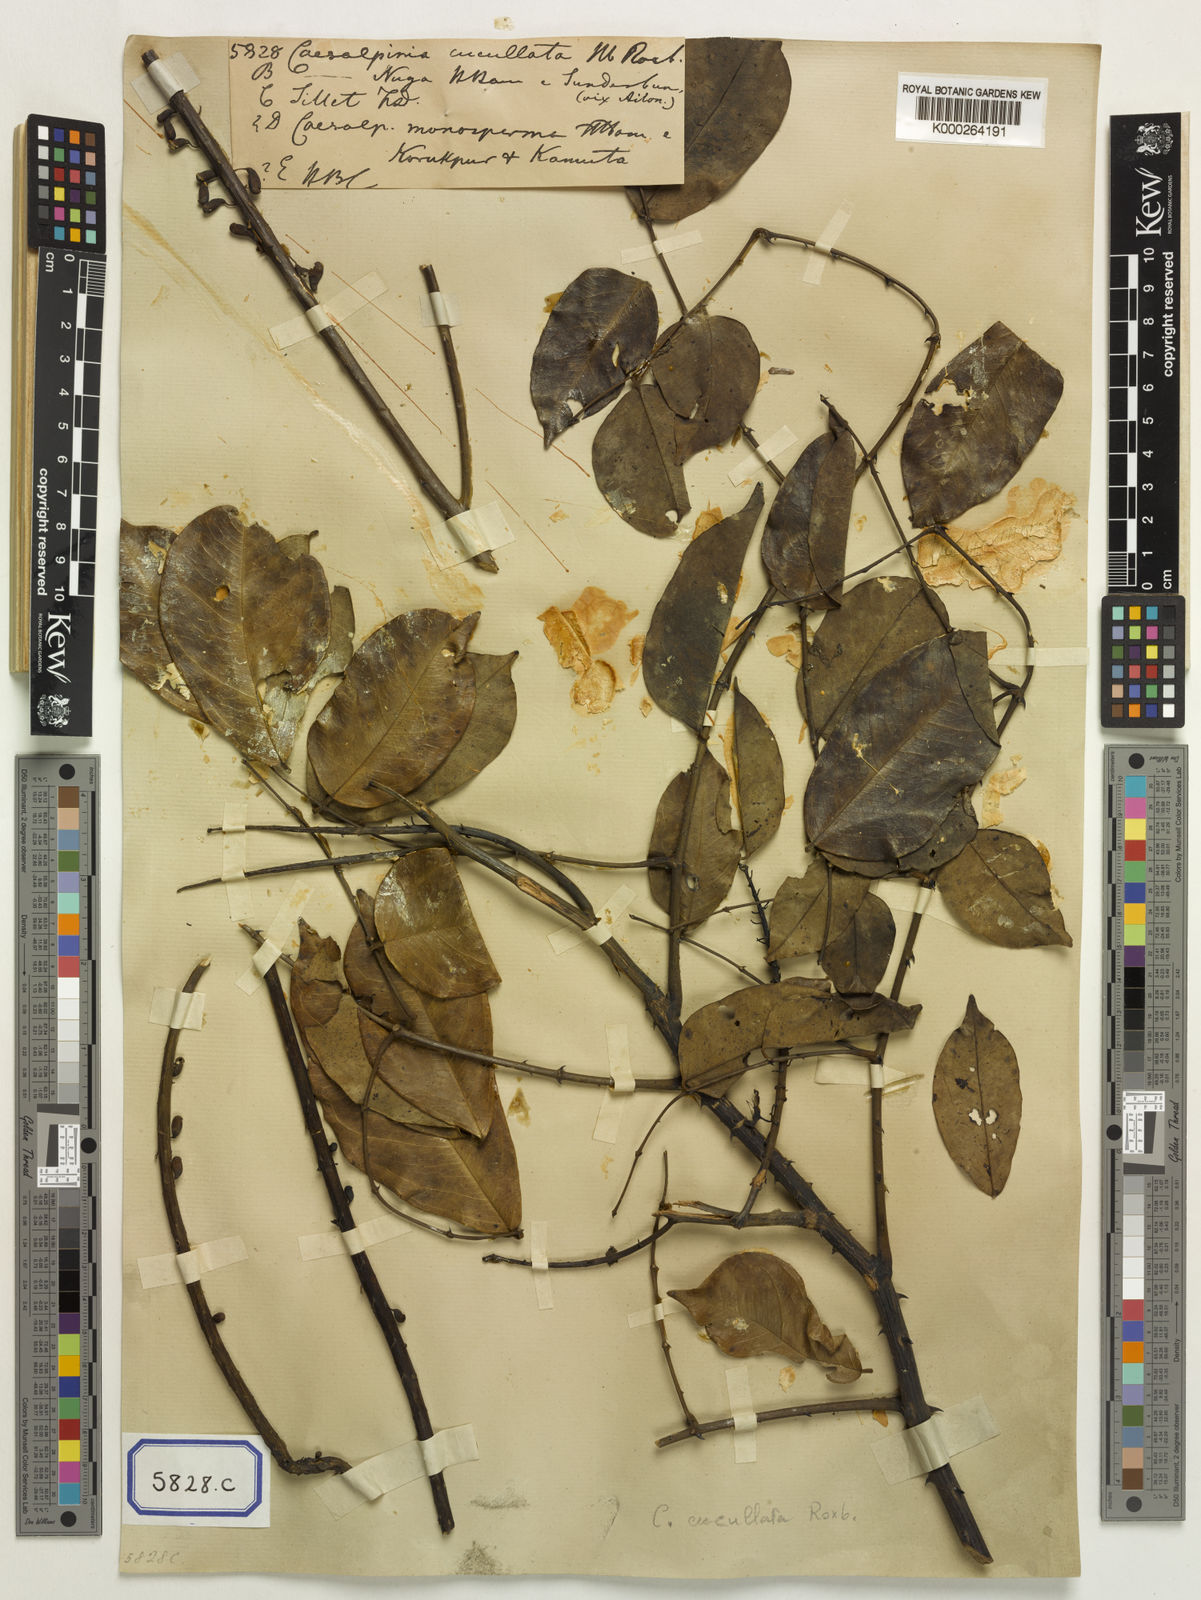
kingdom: Plantae
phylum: Tracheophyta
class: Magnoliopsida
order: Fabales
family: Fabaceae
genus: Mezoneuron
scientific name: Mezoneuron cucullatum
